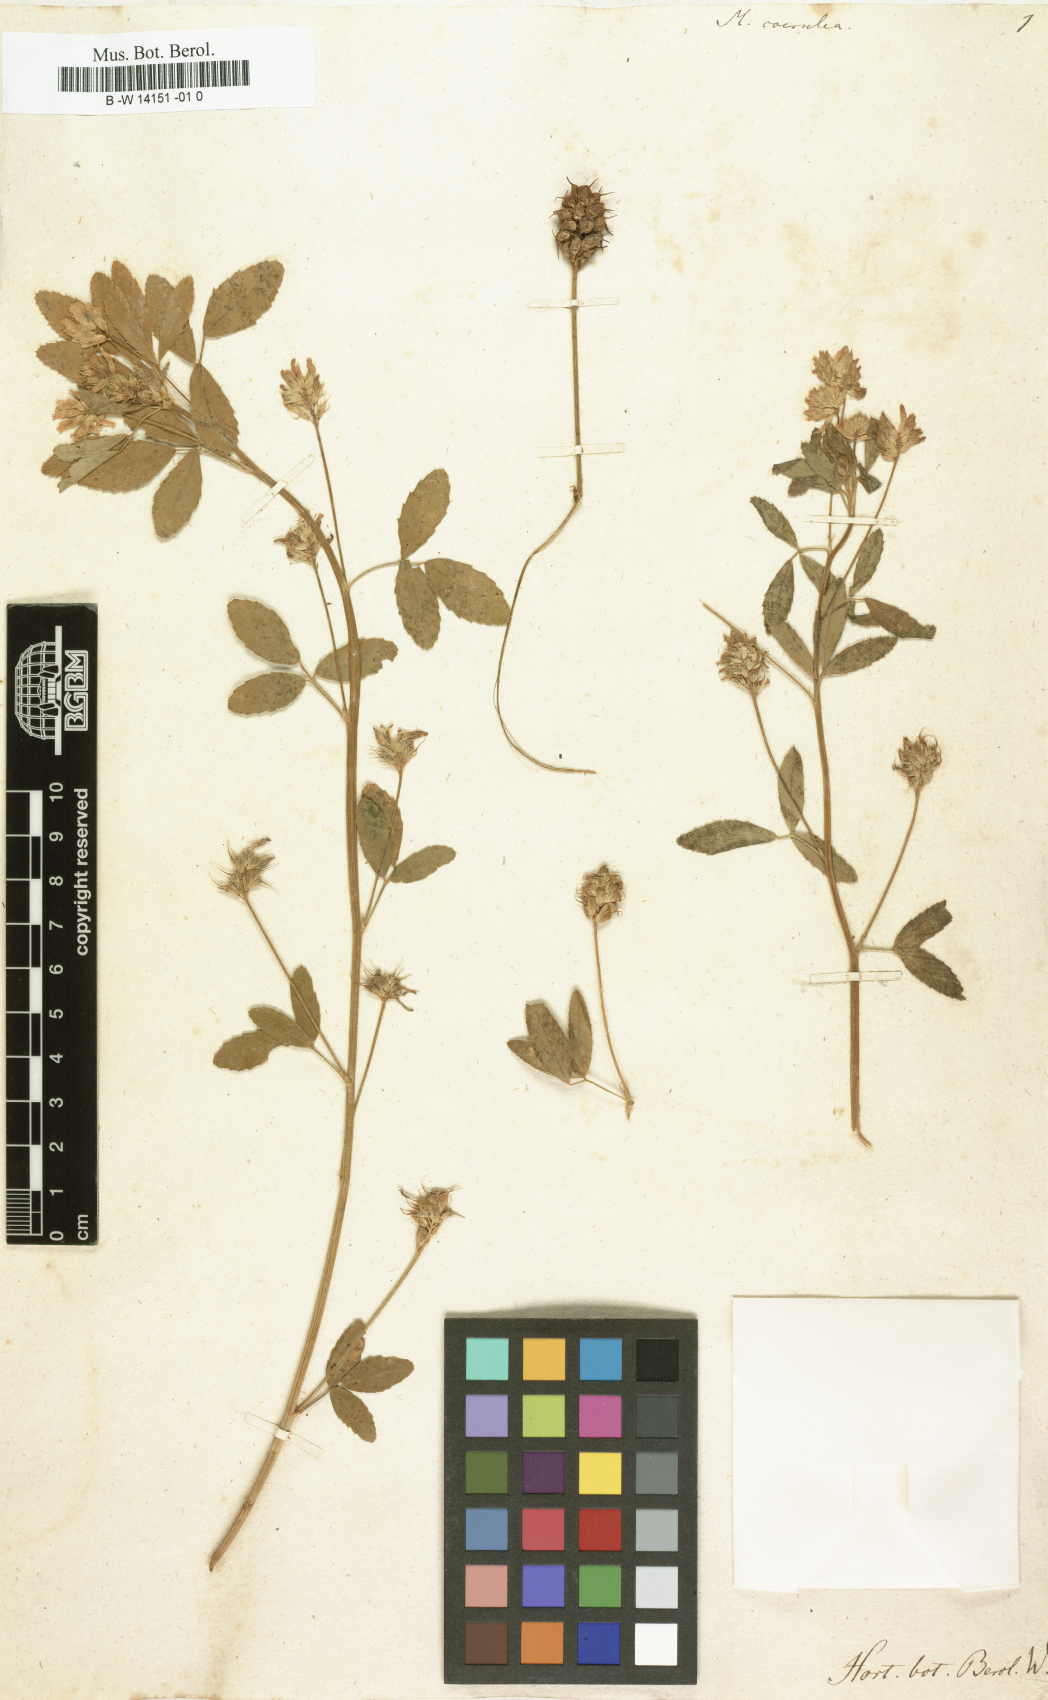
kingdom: Plantae
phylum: Tracheophyta
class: Magnoliopsida
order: Fabales
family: Fabaceae
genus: Trigonella
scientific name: Trigonella caerulea
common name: Blue fenugreek
